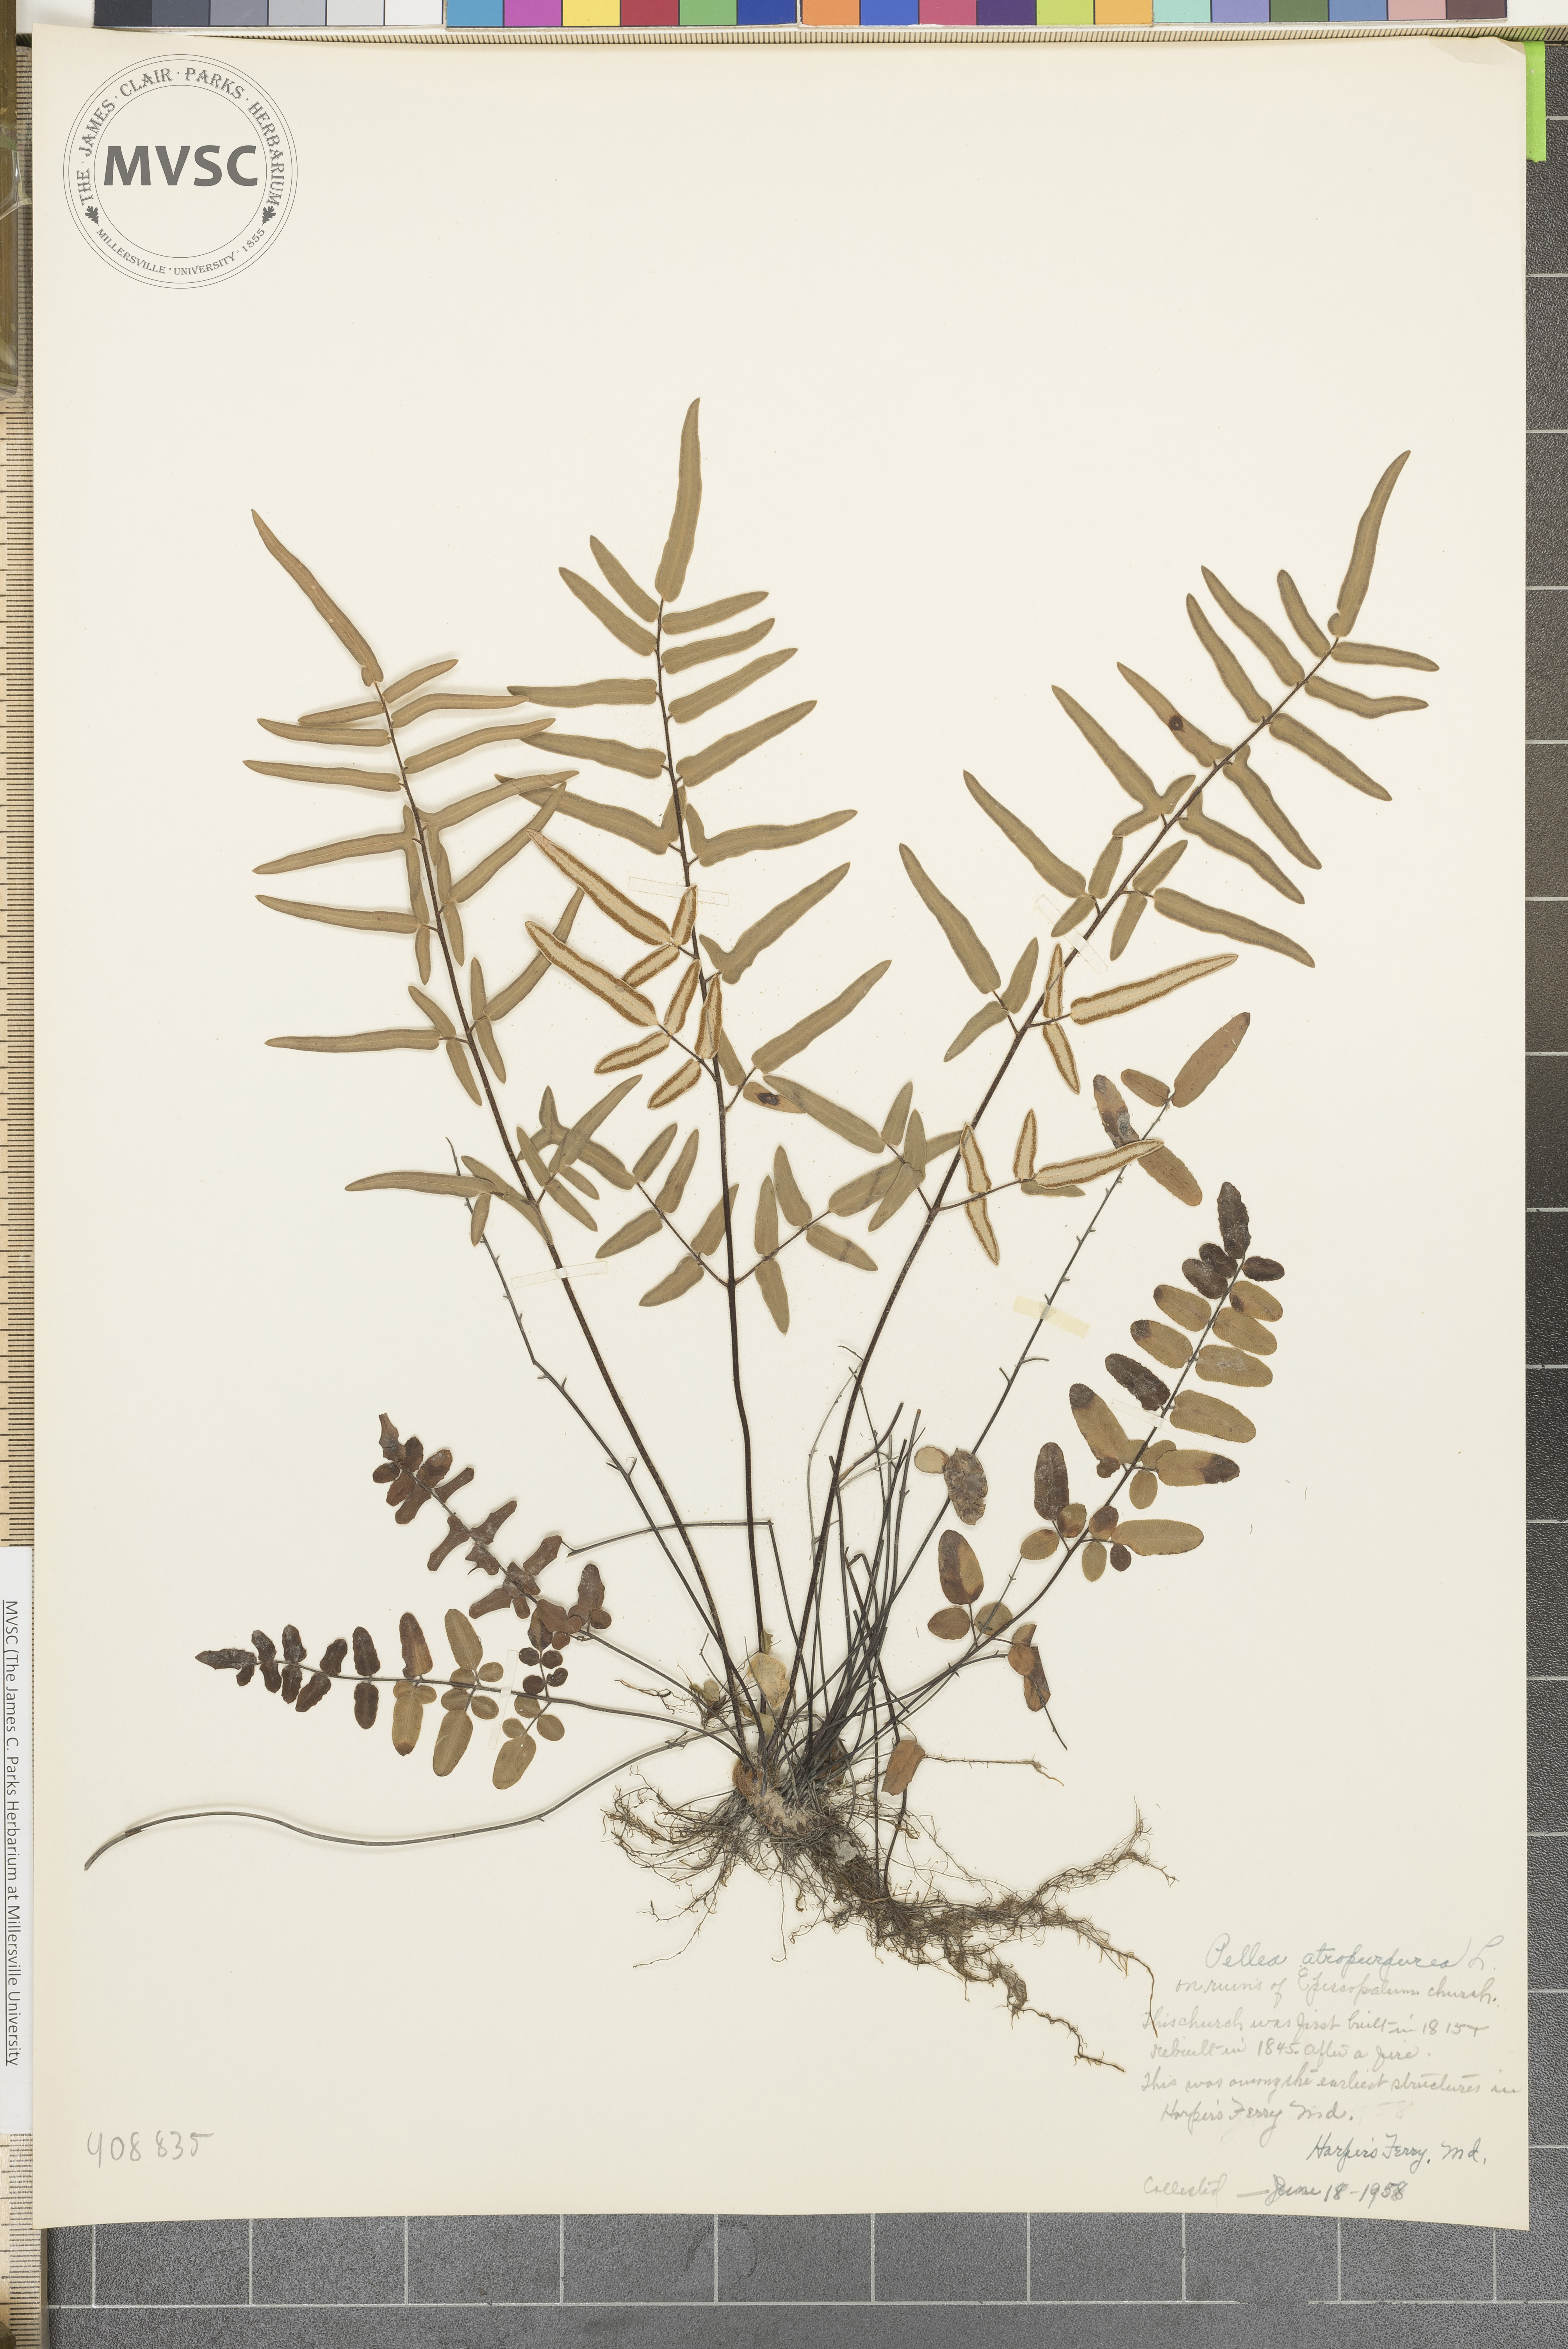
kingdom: Plantae
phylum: Tracheophyta
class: Polypodiopsida
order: Polypodiales
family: Pteridaceae
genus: Pellaea
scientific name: Pellaea atropurpurea
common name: Hairy cliffbrake
